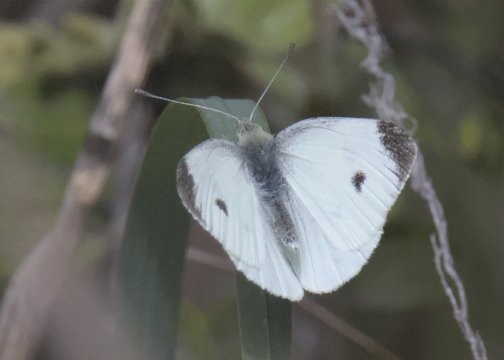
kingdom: Animalia
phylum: Arthropoda
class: Insecta
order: Lepidoptera
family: Pieridae
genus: Pieris
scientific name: Pieris rapae
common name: Cabbage White
